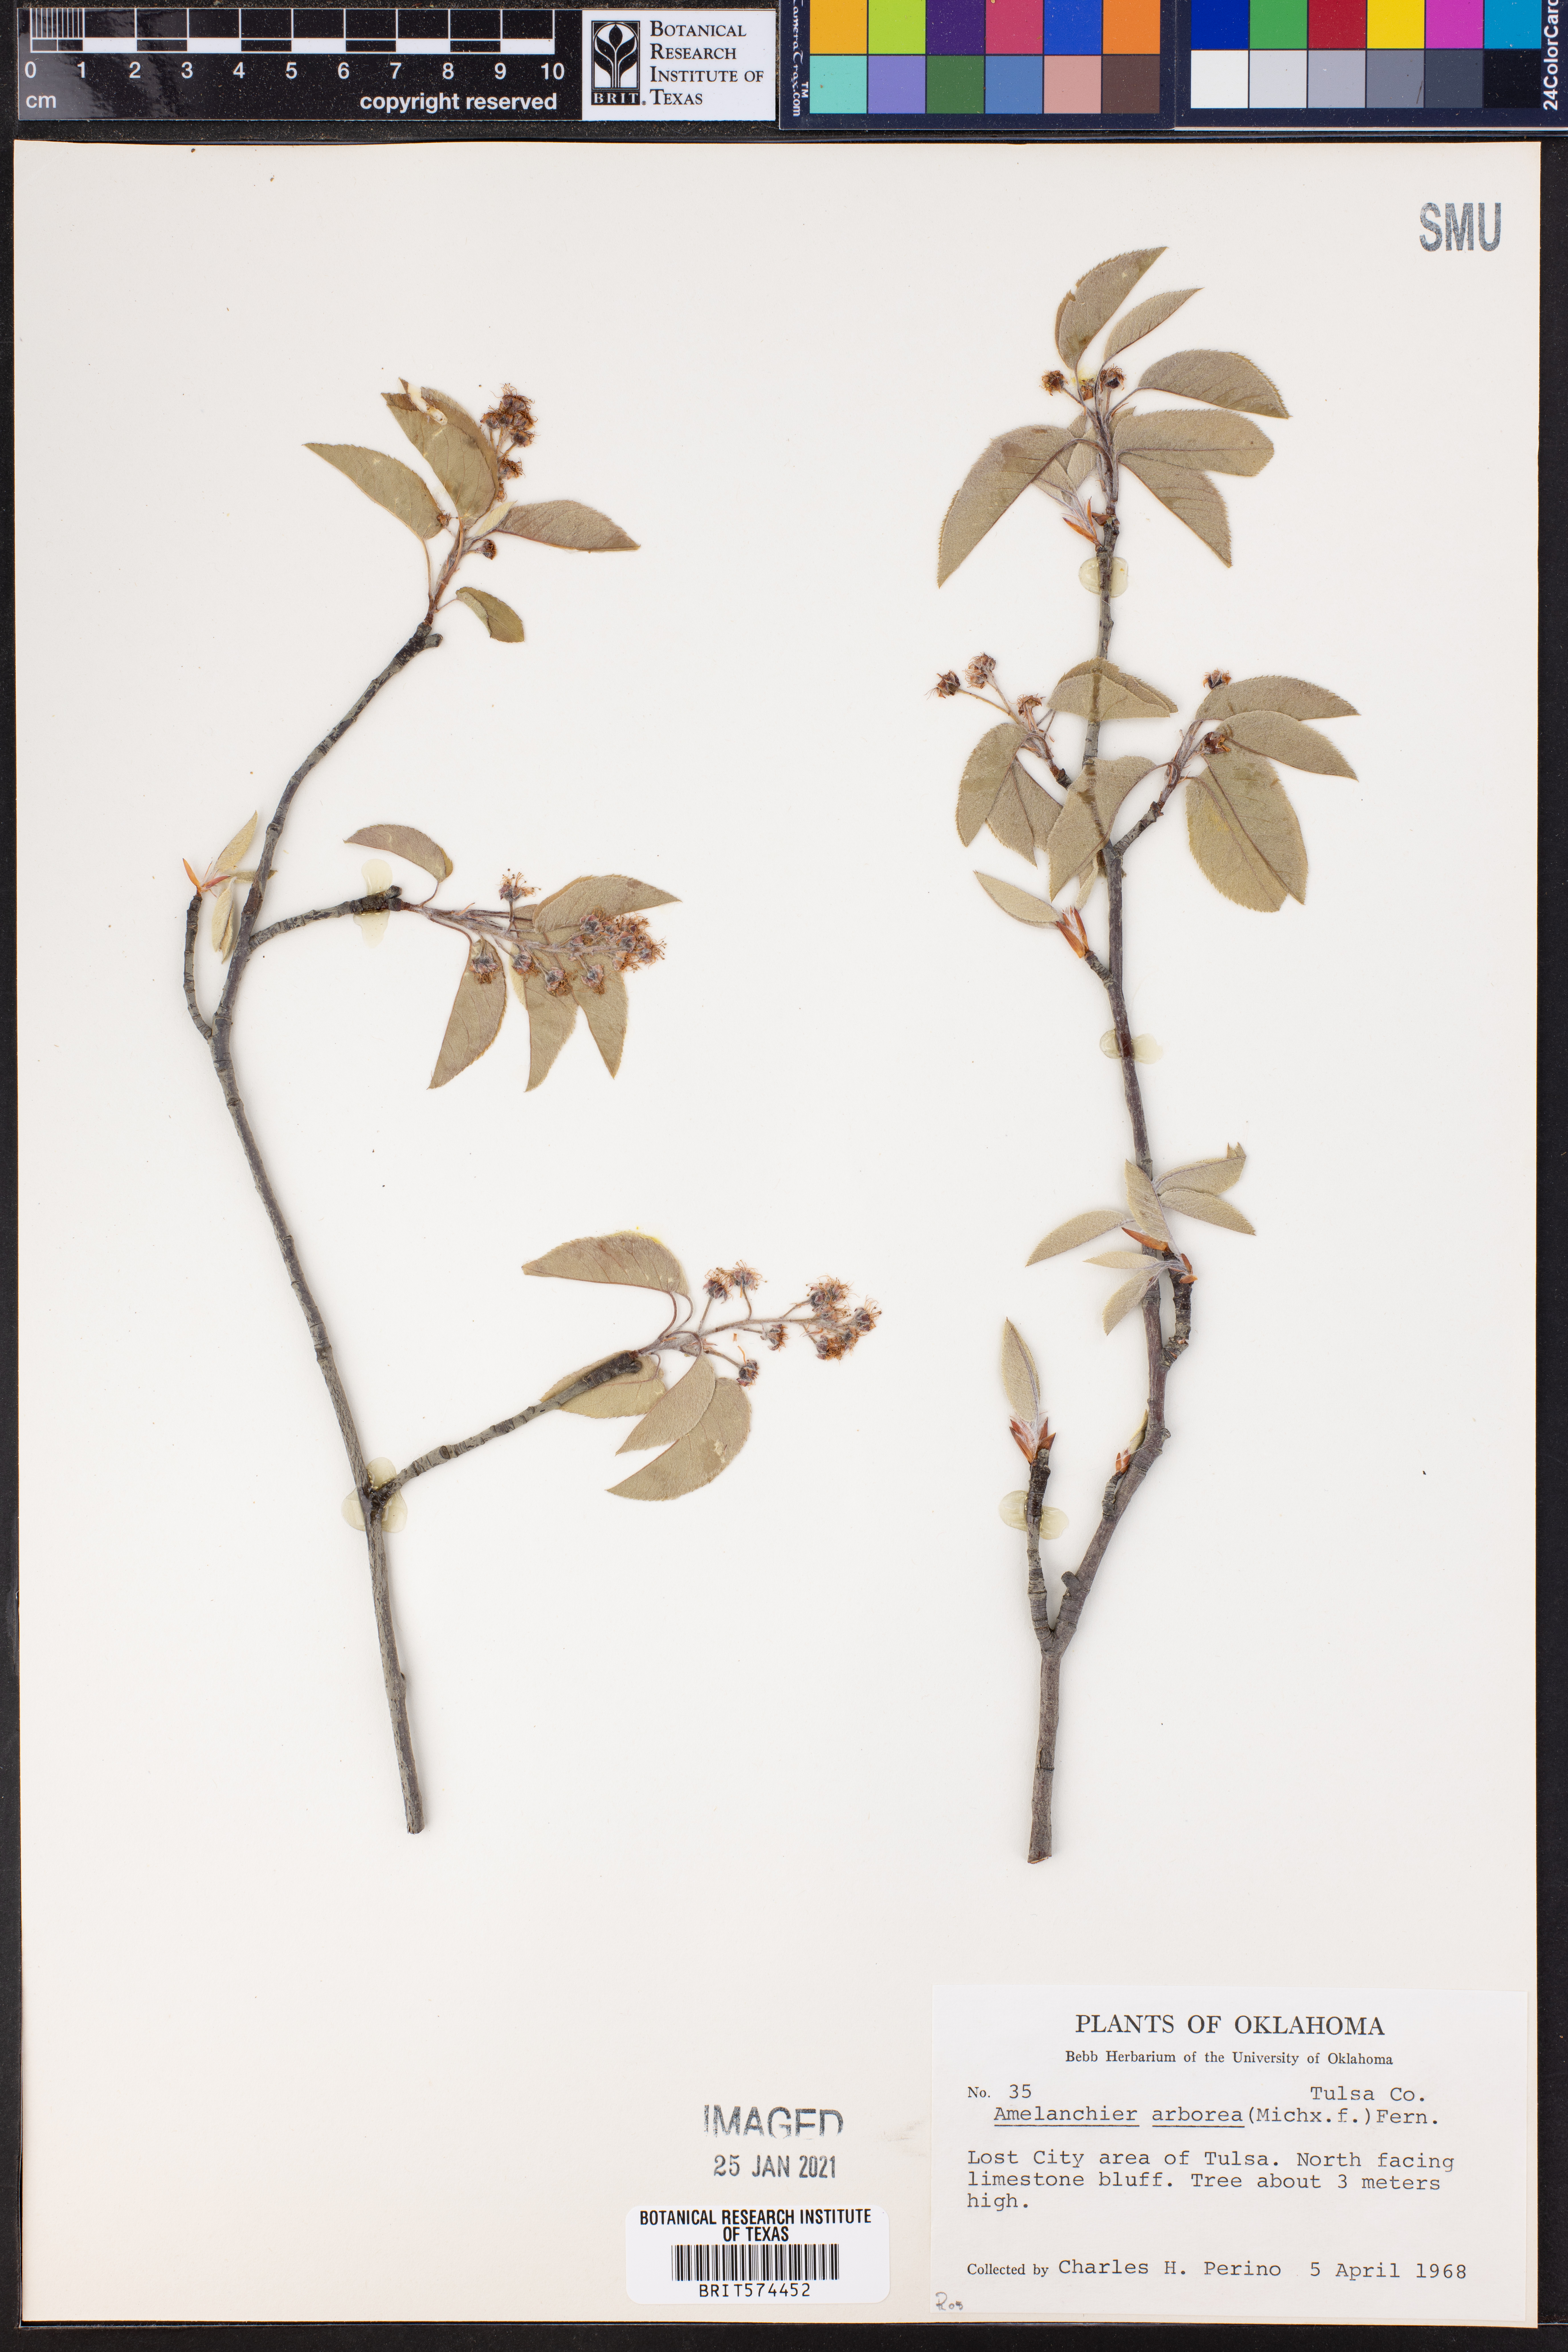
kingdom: Plantae
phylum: Tracheophyta
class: Magnoliopsida
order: Rosales
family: Rosaceae
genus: Amelanchier
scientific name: Amelanchier arborea
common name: Downy serviceberry
